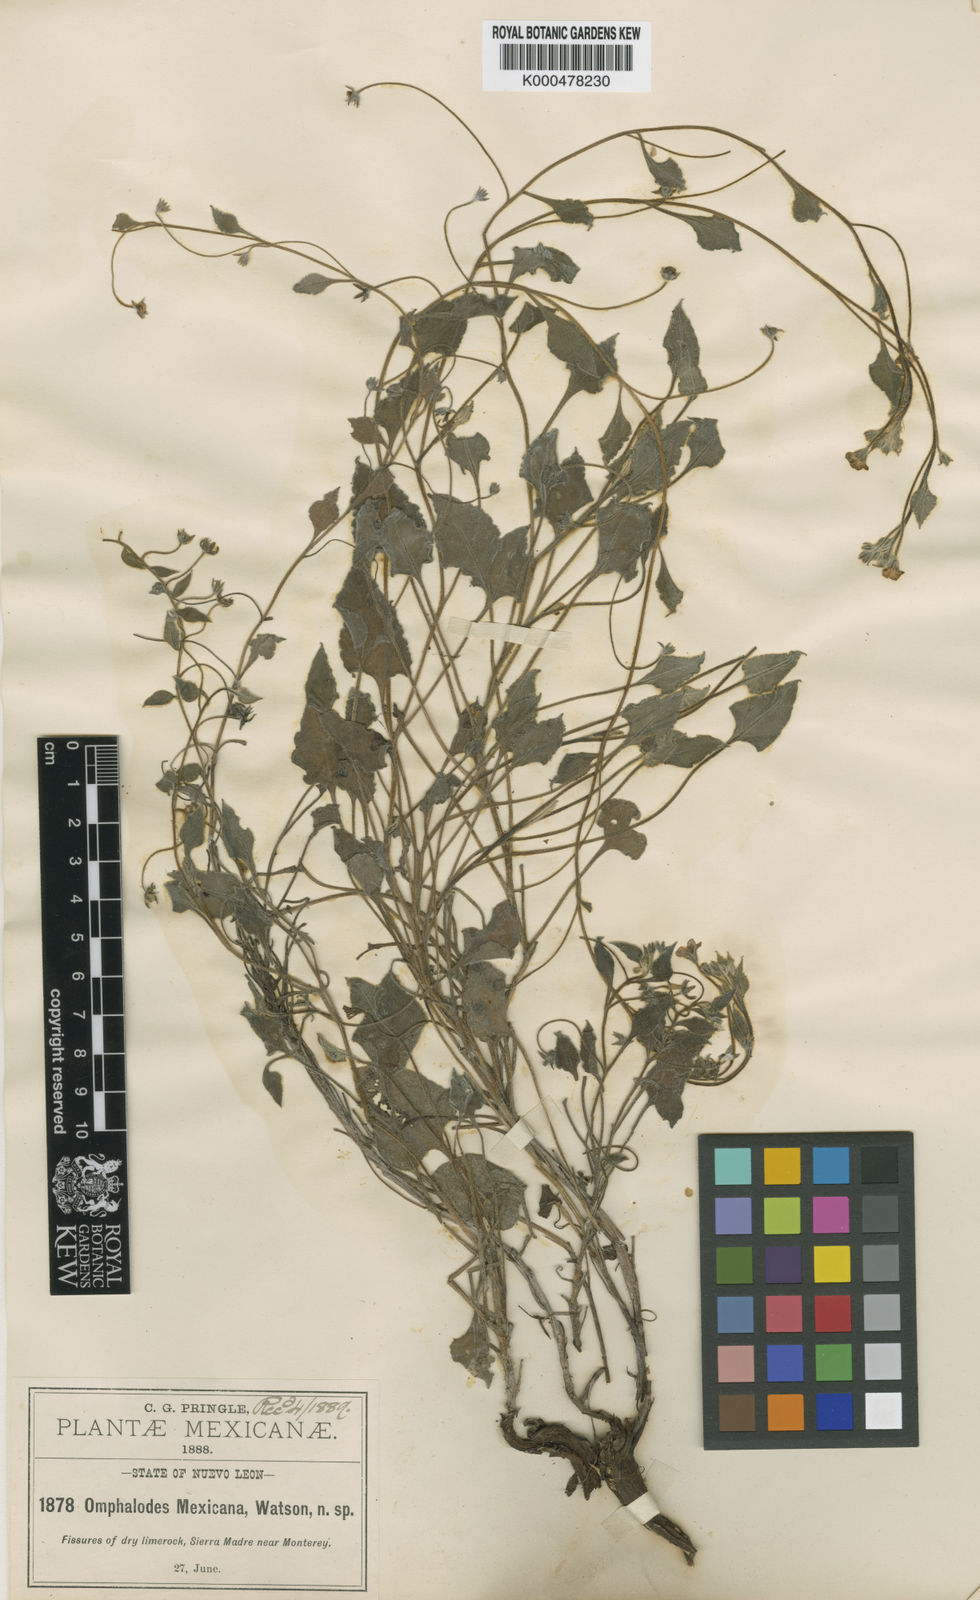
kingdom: Plantae
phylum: Tracheophyta
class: Magnoliopsida
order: Boraginales
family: Boraginaceae
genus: Mimophytum
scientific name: Mimophytum mexicanum
